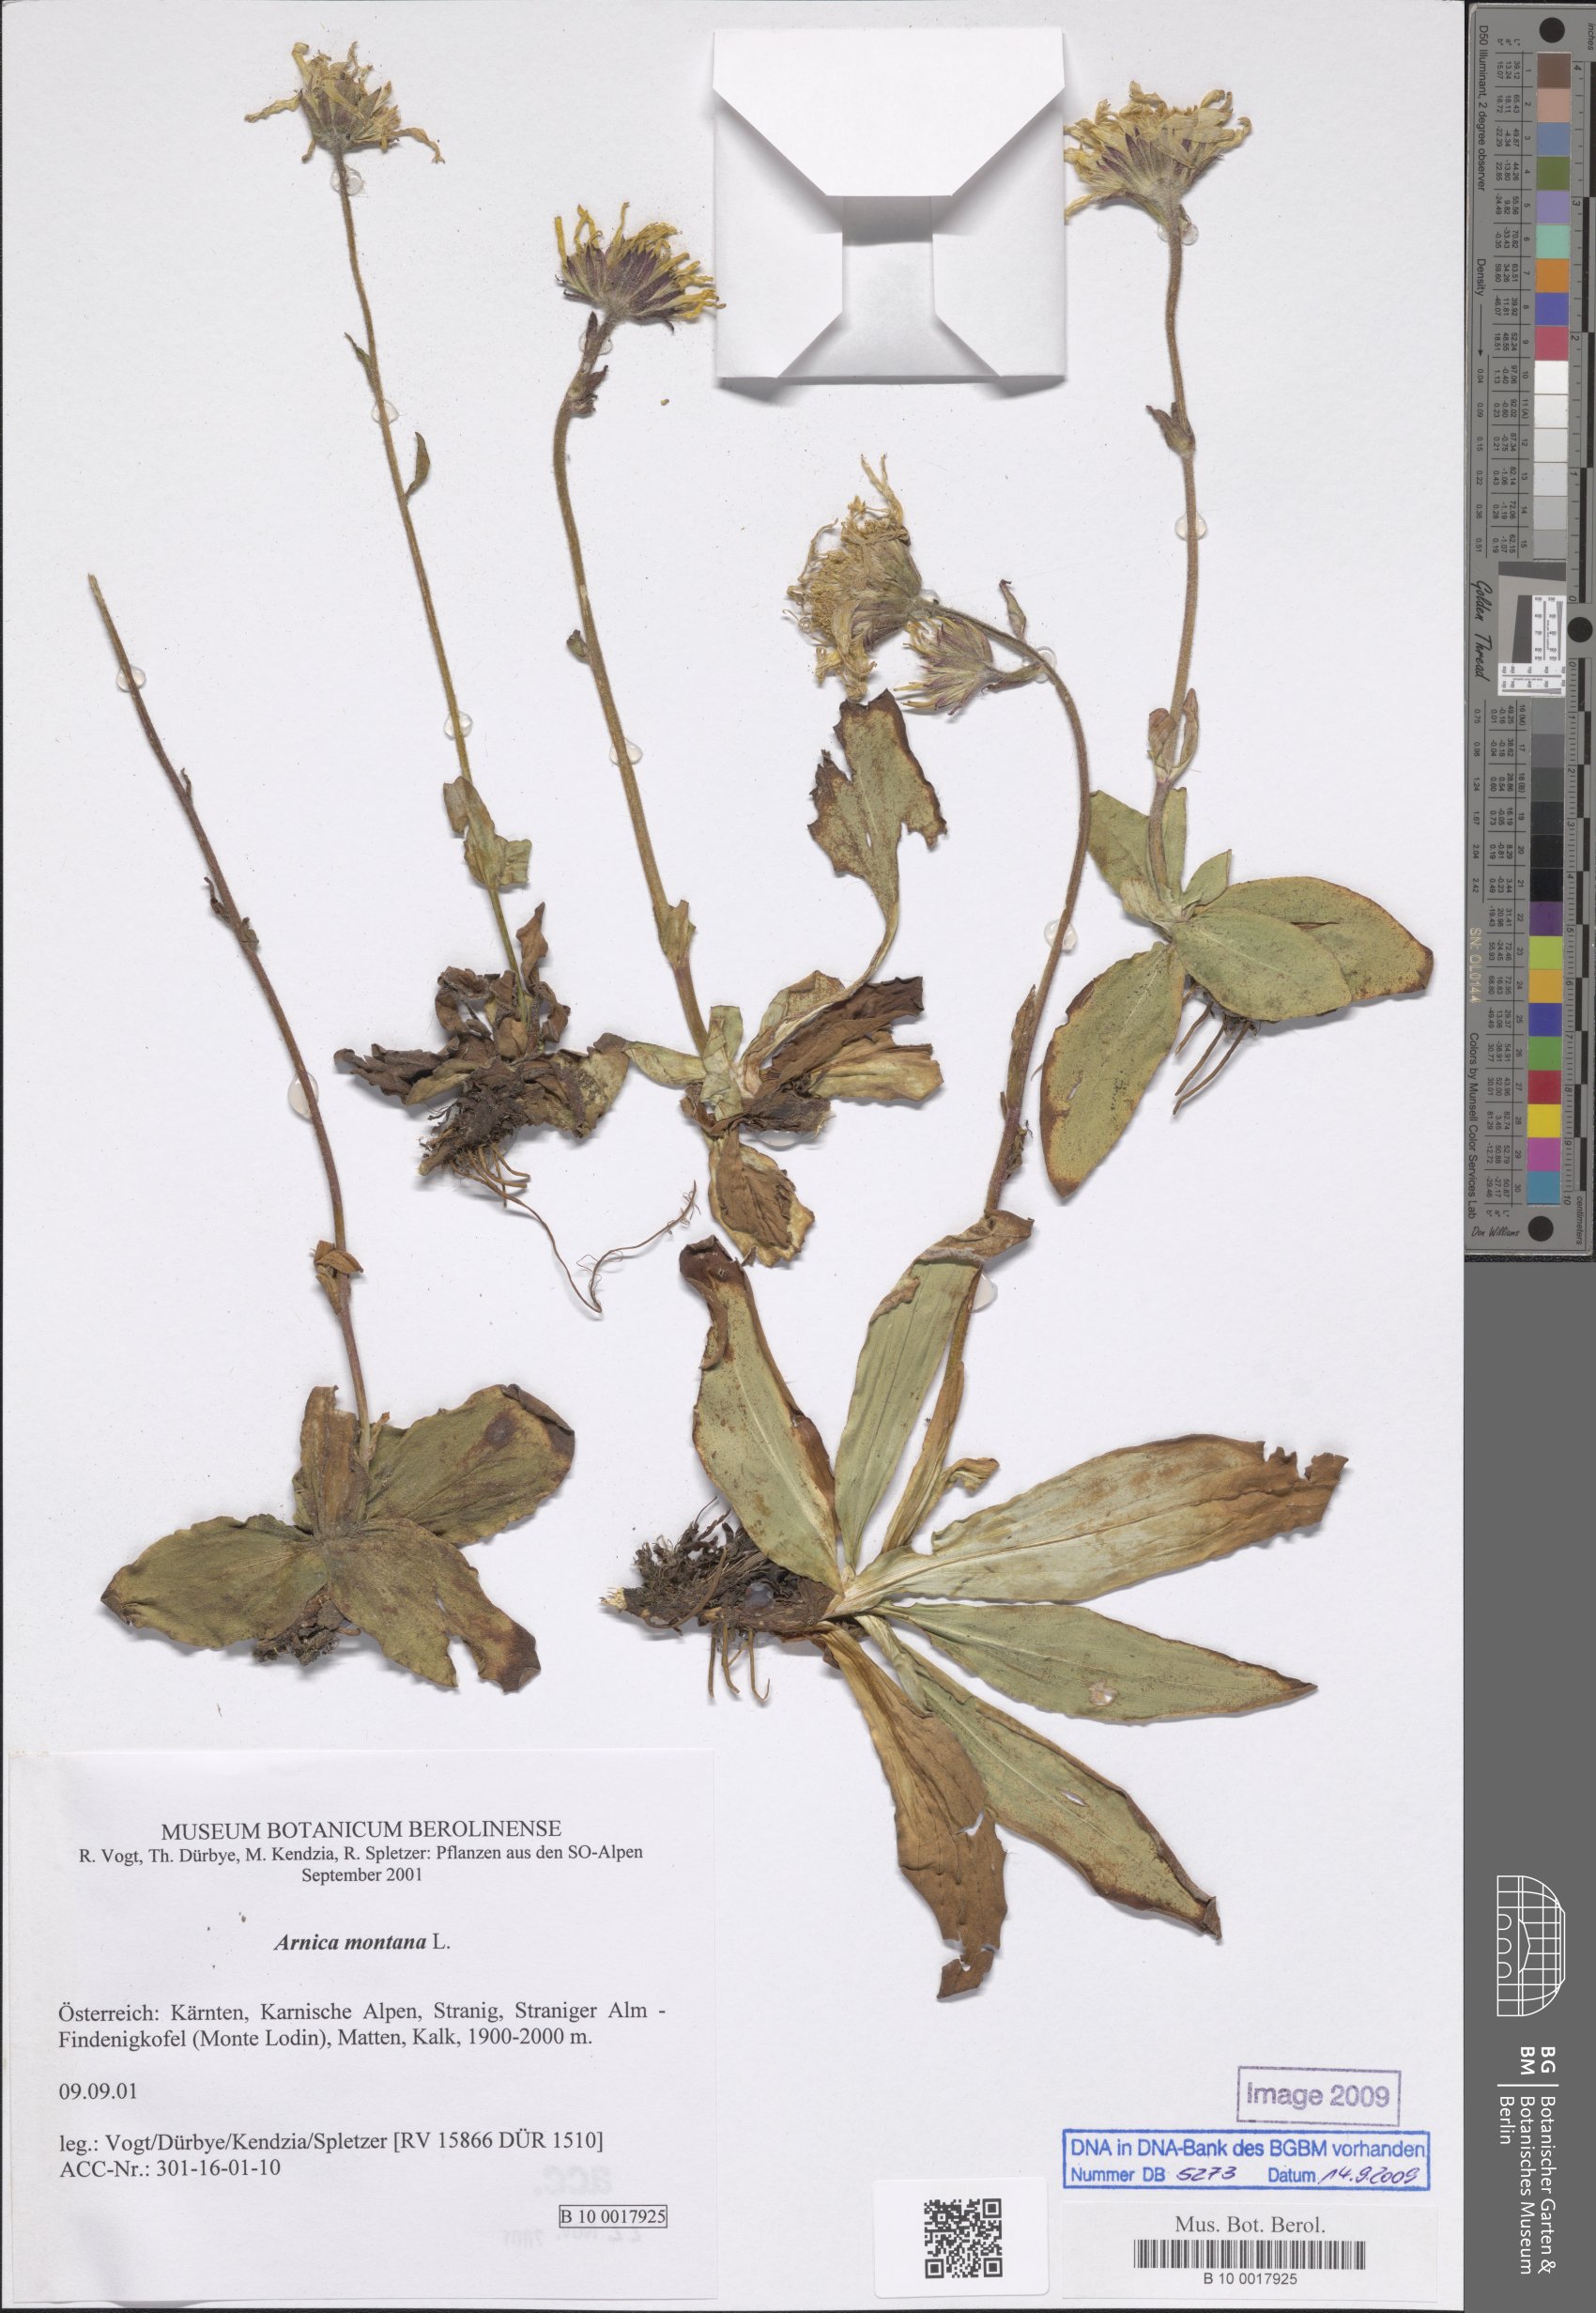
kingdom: Plantae
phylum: Tracheophyta
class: Magnoliopsida
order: Asterales
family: Asteraceae
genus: Arnica
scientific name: Arnica montana
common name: Leopard's bane
